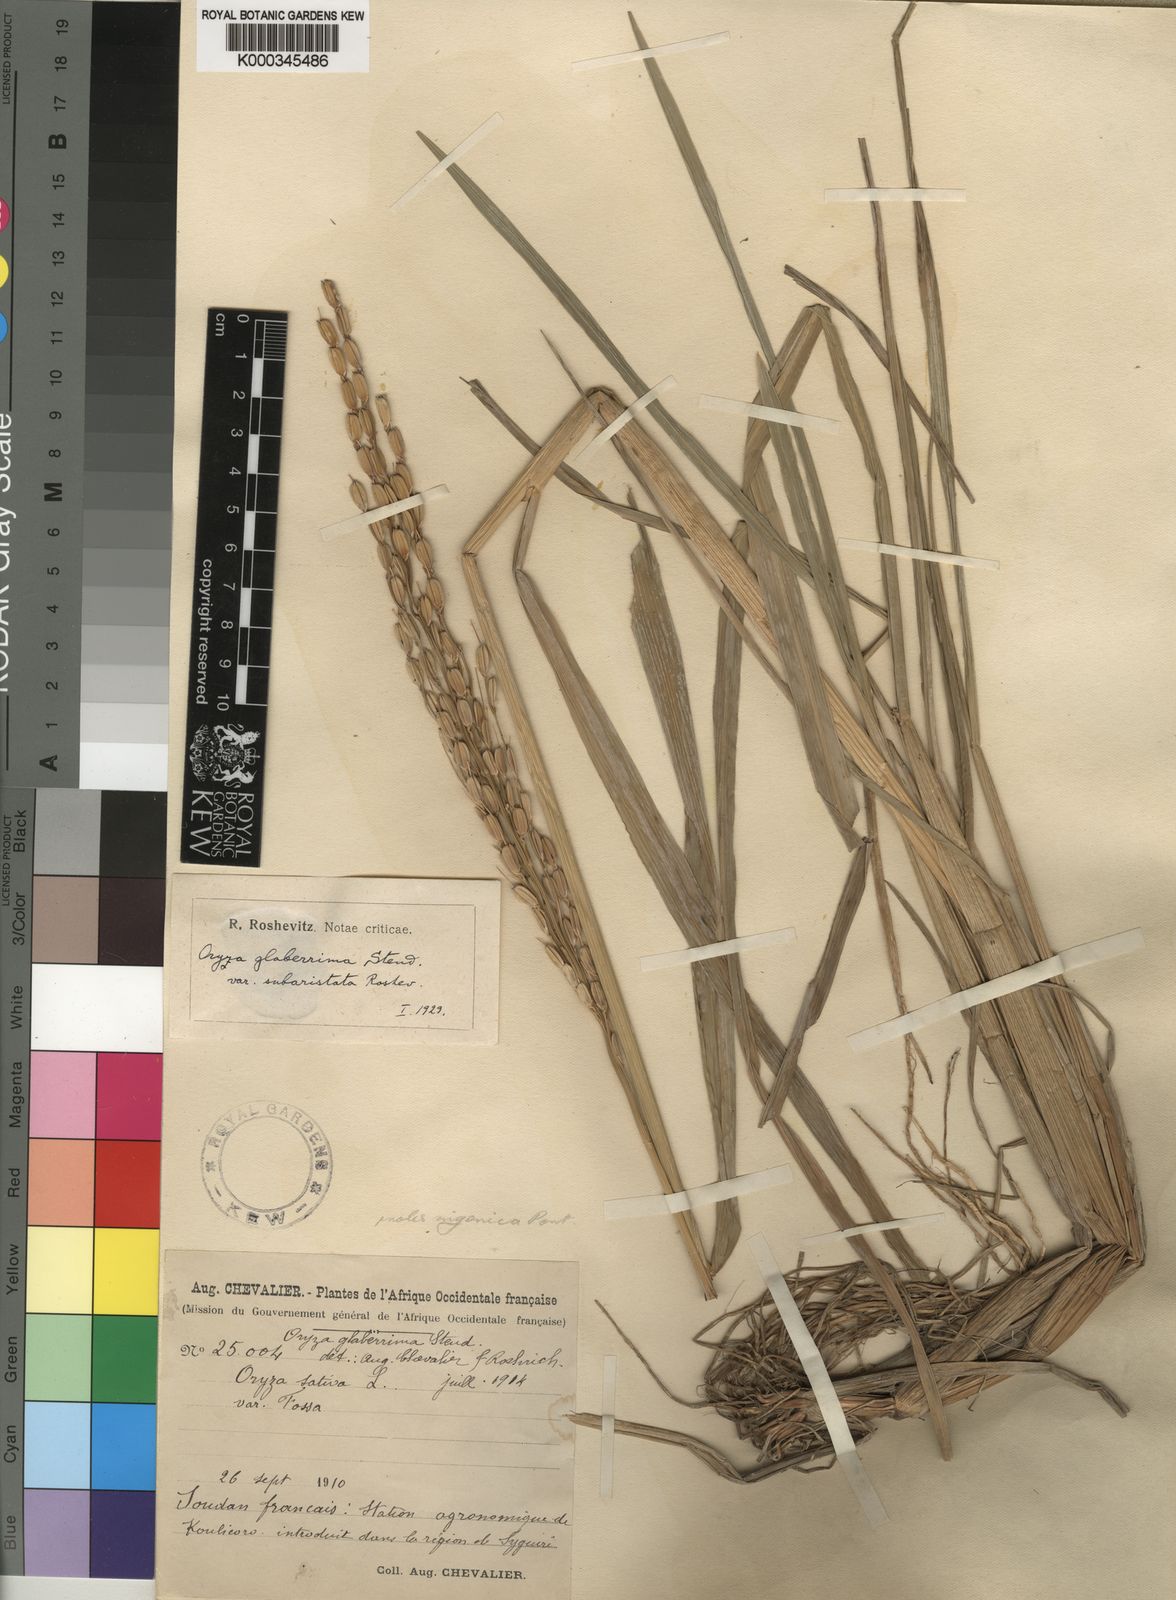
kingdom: Plantae
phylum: Tracheophyta
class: Liliopsida
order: Poales
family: Poaceae
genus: Oryza
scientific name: Oryza glaberrima
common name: African rice
